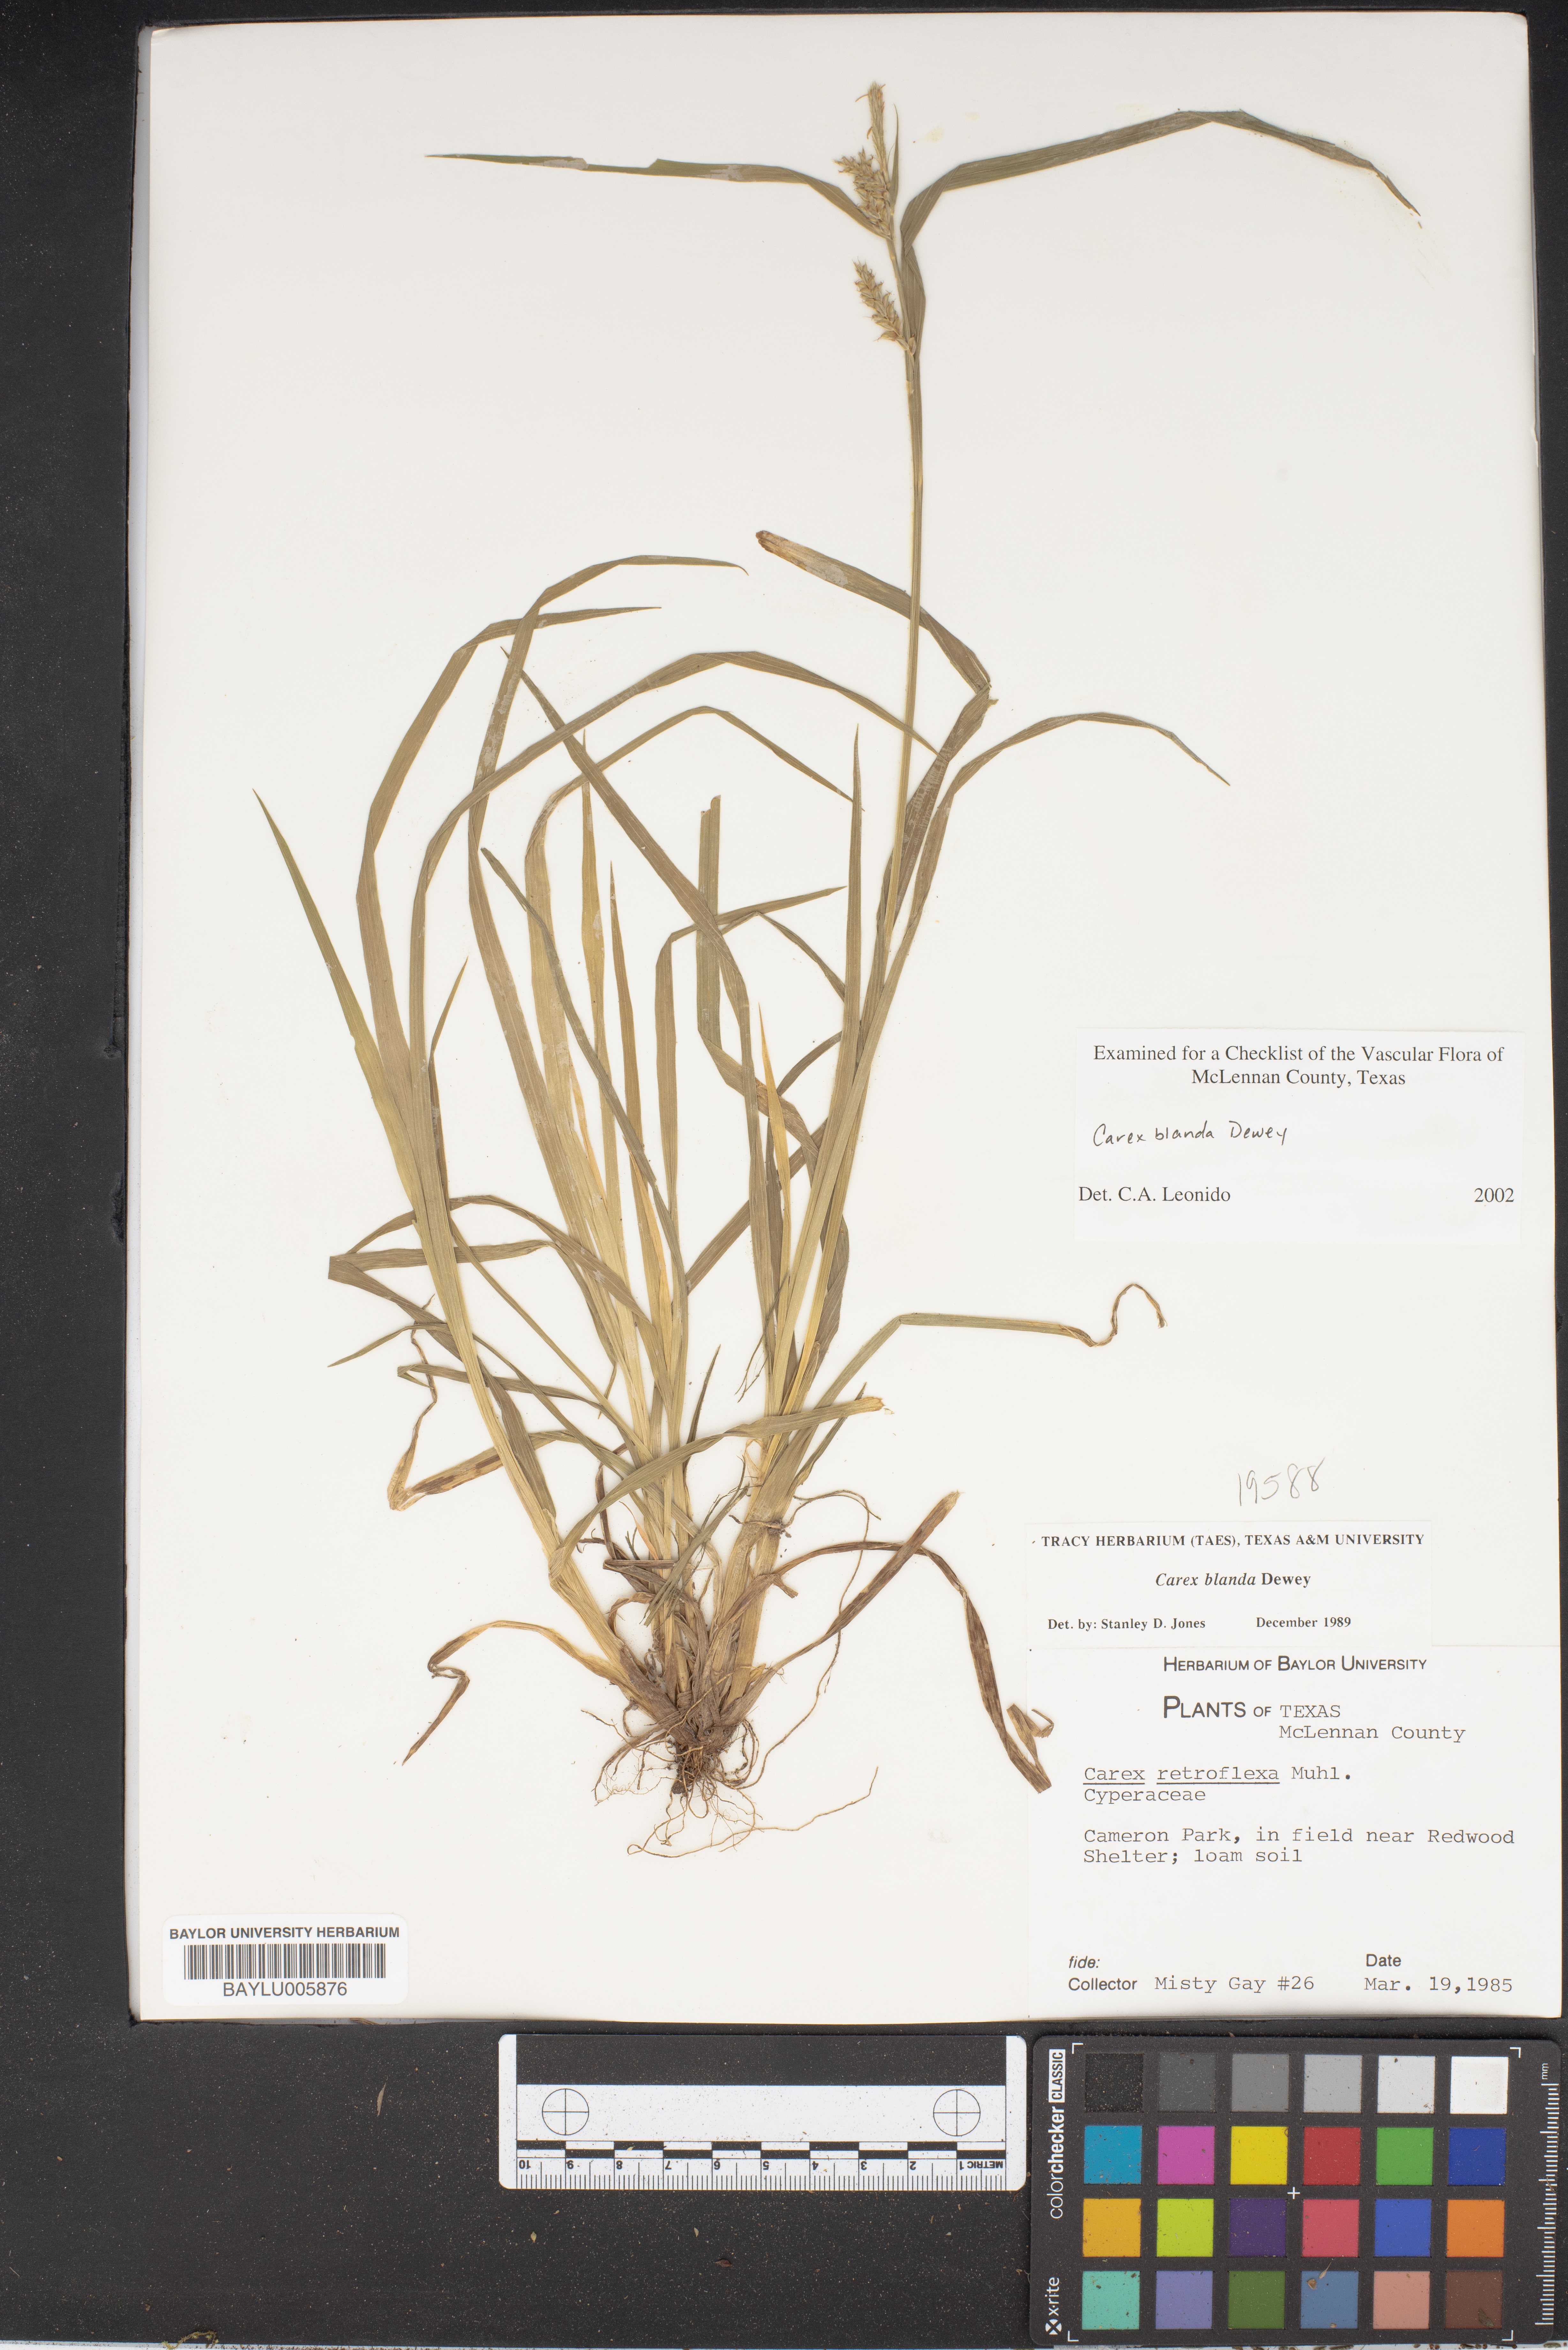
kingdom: Plantae
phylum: Tracheophyta
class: Liliopsida
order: Poales
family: Cyperaceae
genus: Carex
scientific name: Carex blanda
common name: Bland sedge
